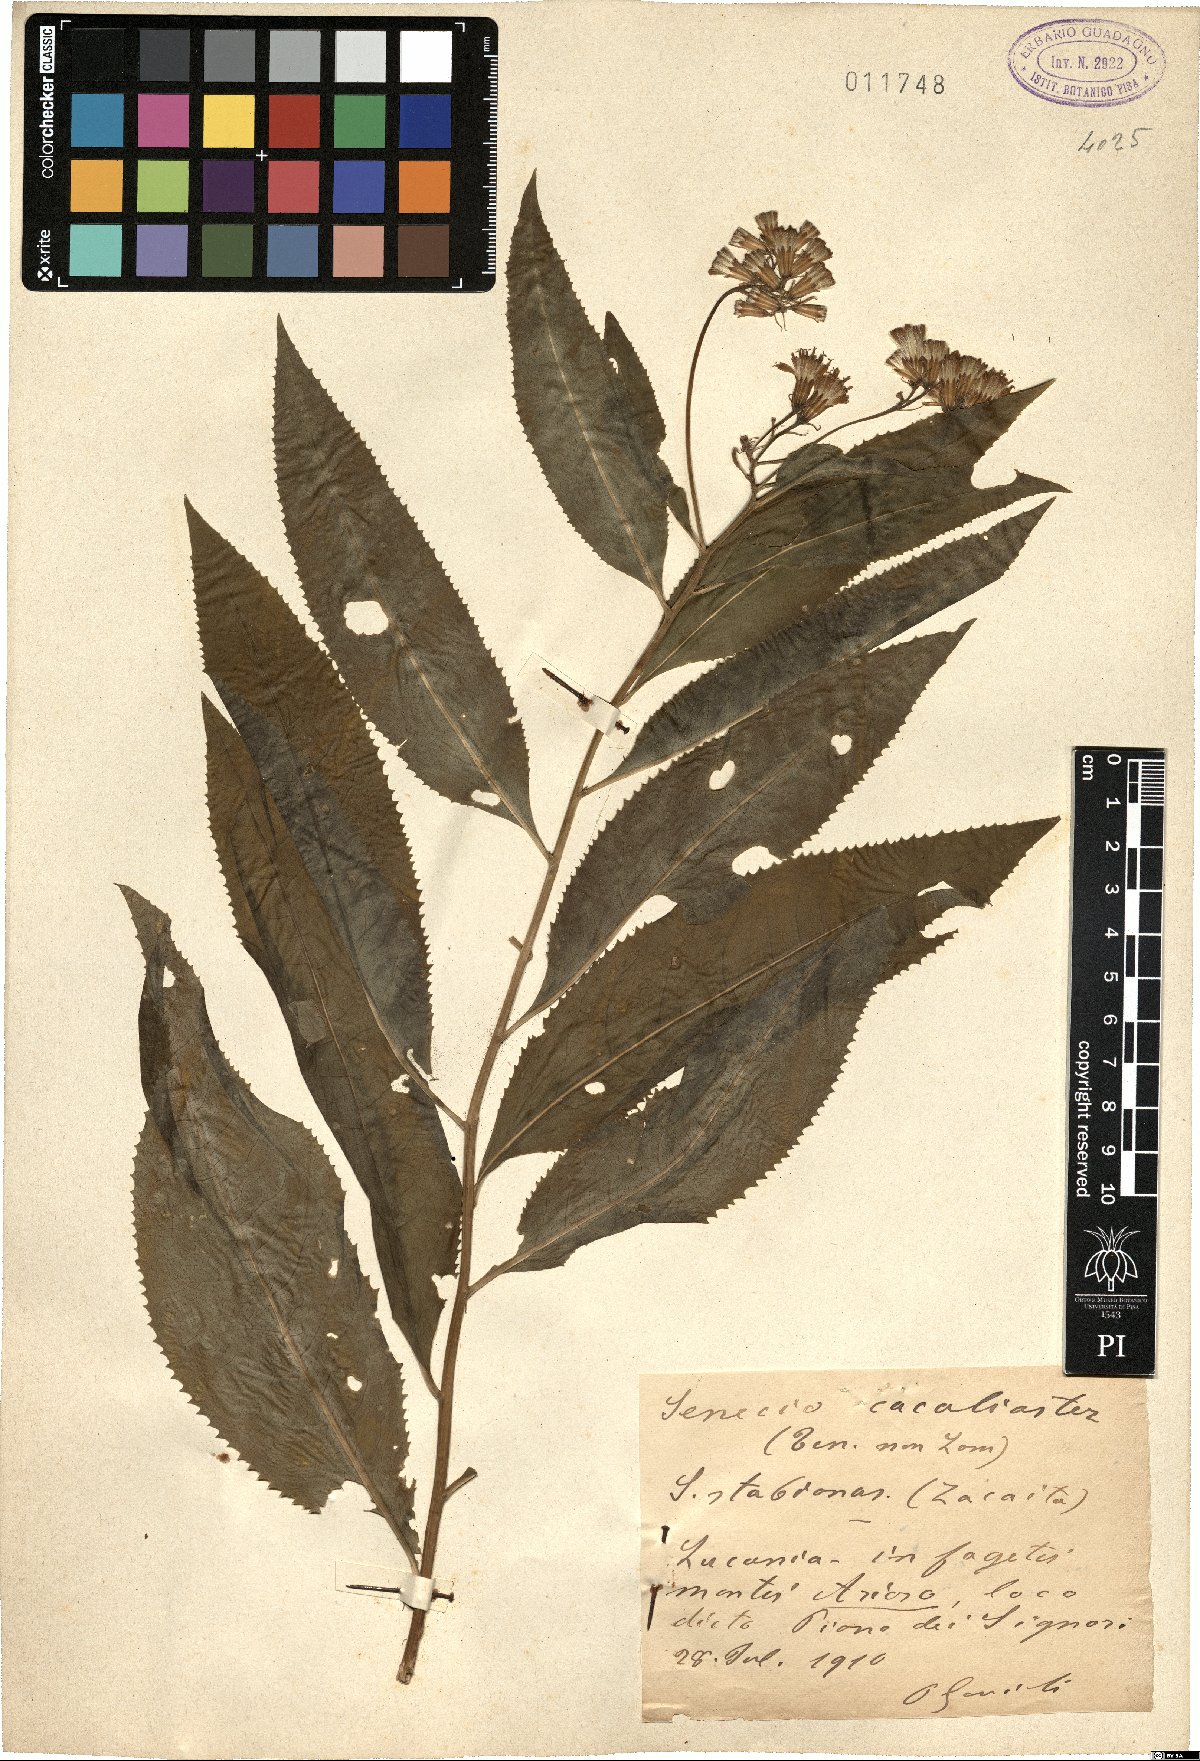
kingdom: Plantae
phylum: Tracheophyta
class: Magnoliopsida
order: Asterales
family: Asteraceae
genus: Senecio
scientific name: Senecio ovatus
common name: Wood ragwort
